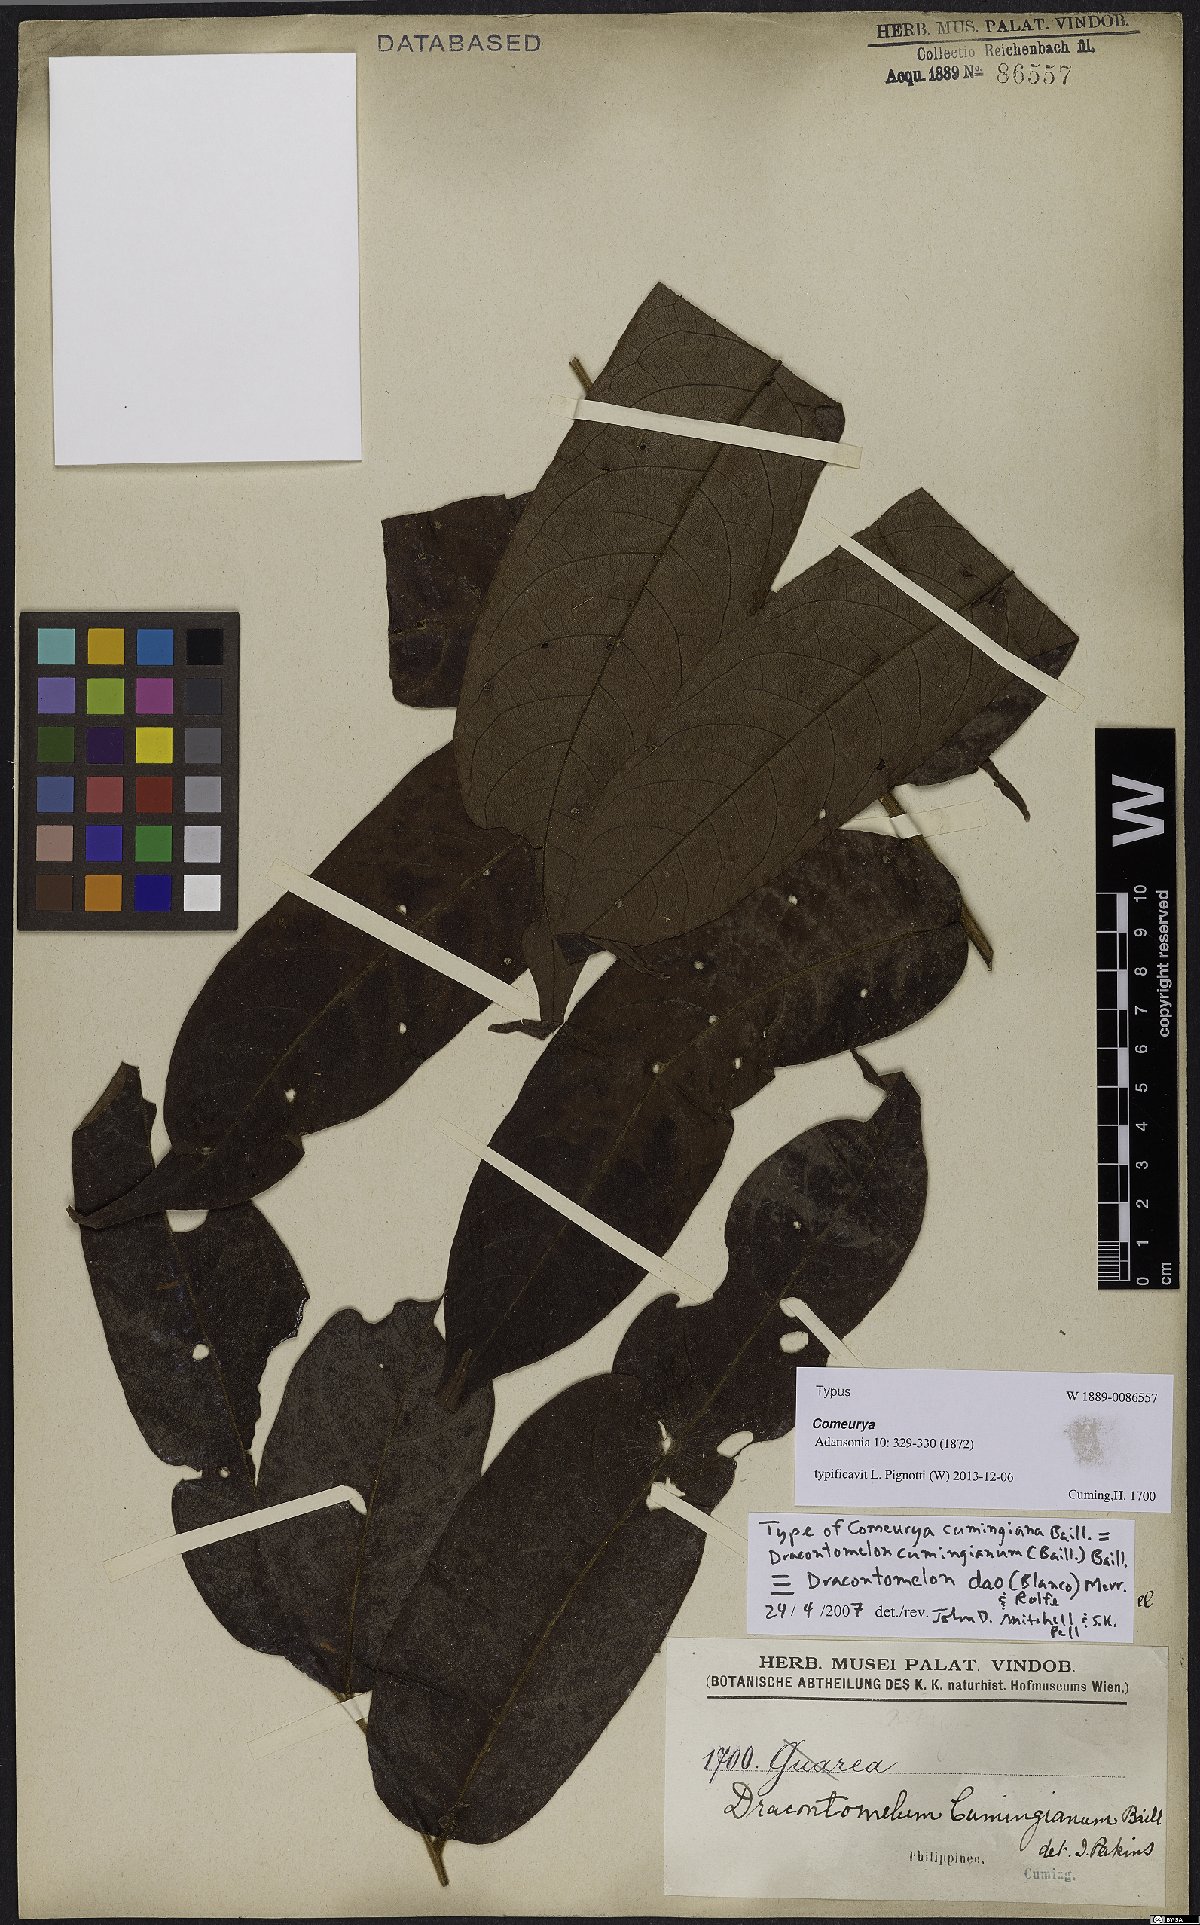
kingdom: Plantae
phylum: Tracheophyta
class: Magnoliopsida
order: Sapindales
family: Anacardiaceae
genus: Dracontomelon
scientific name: Dracontomelon dao
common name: Argus pheasant-tree
